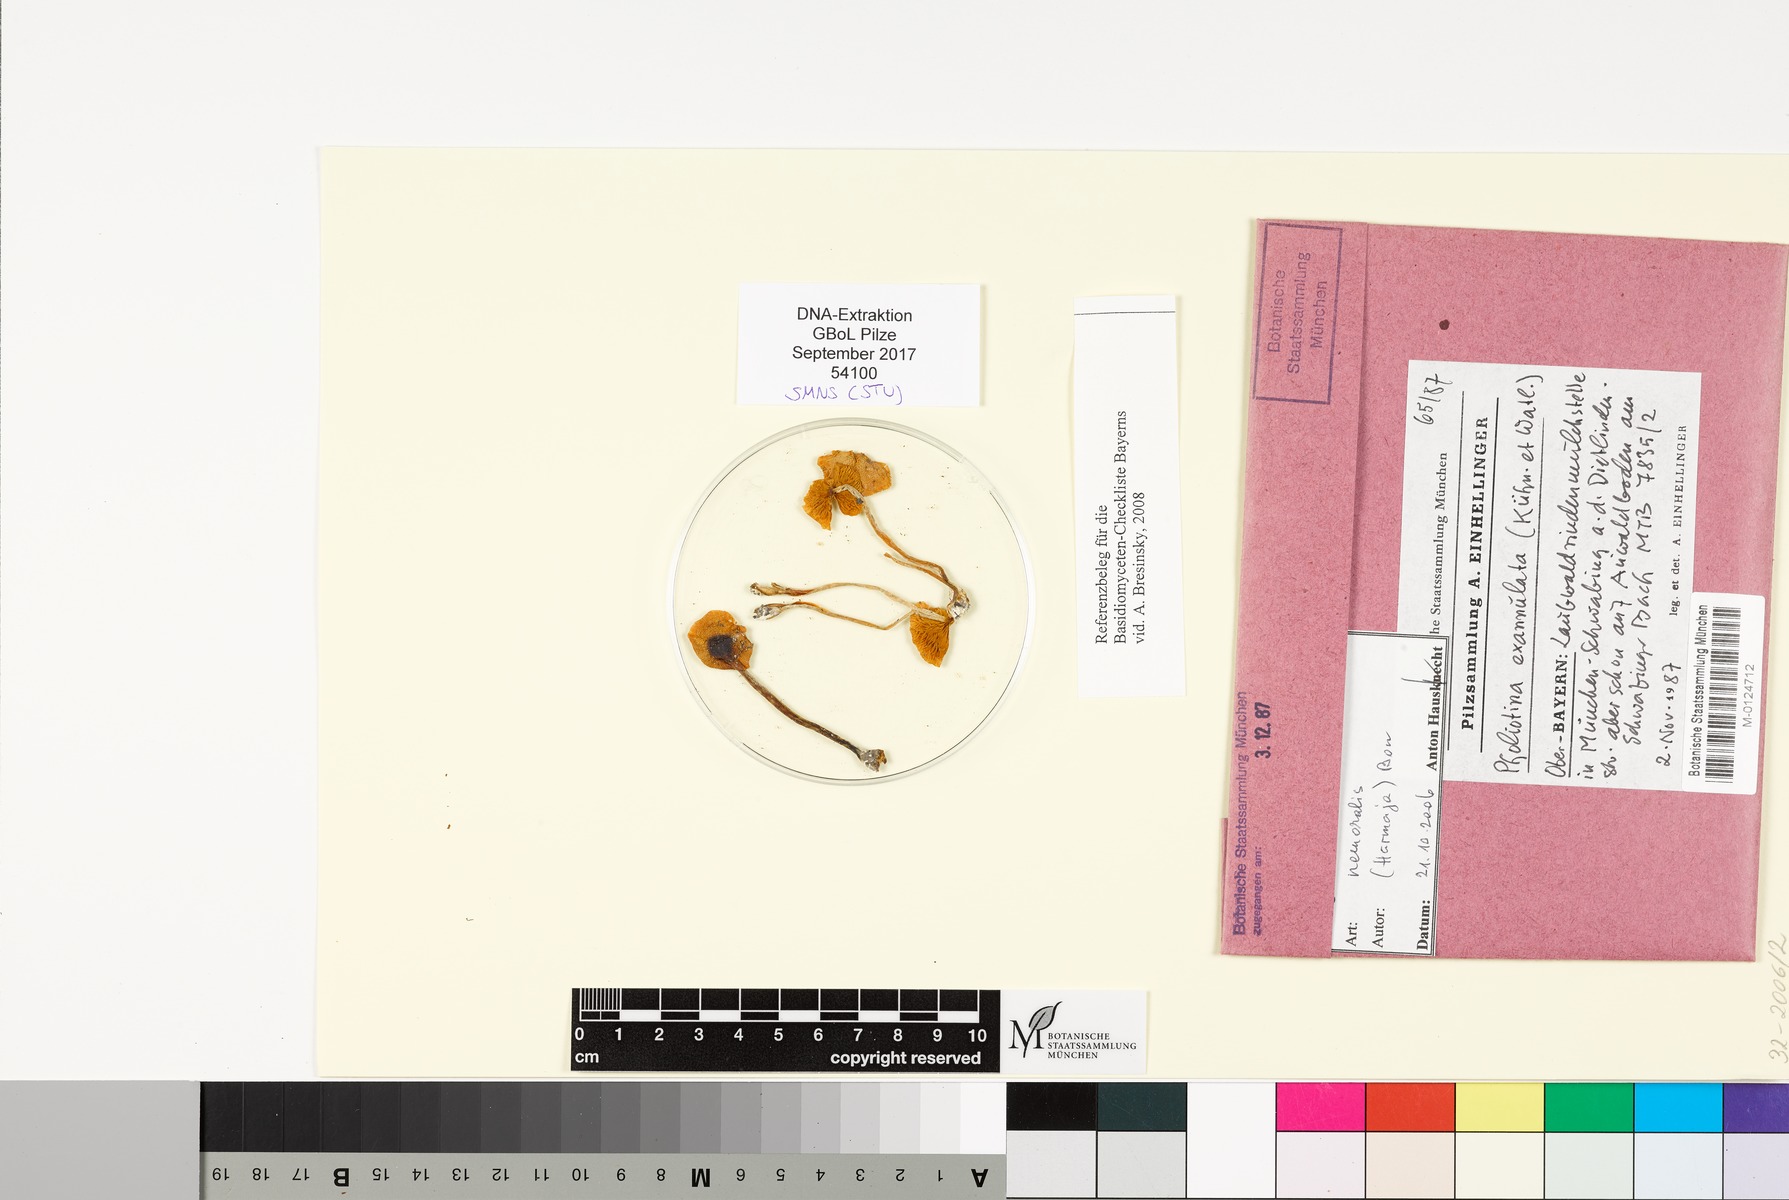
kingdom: Fungi
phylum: Basidiomycota
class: Agaricomycetes
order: Agaricales
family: Bolbitiaceae
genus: Conocybe
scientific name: Conocybe nemoralis
